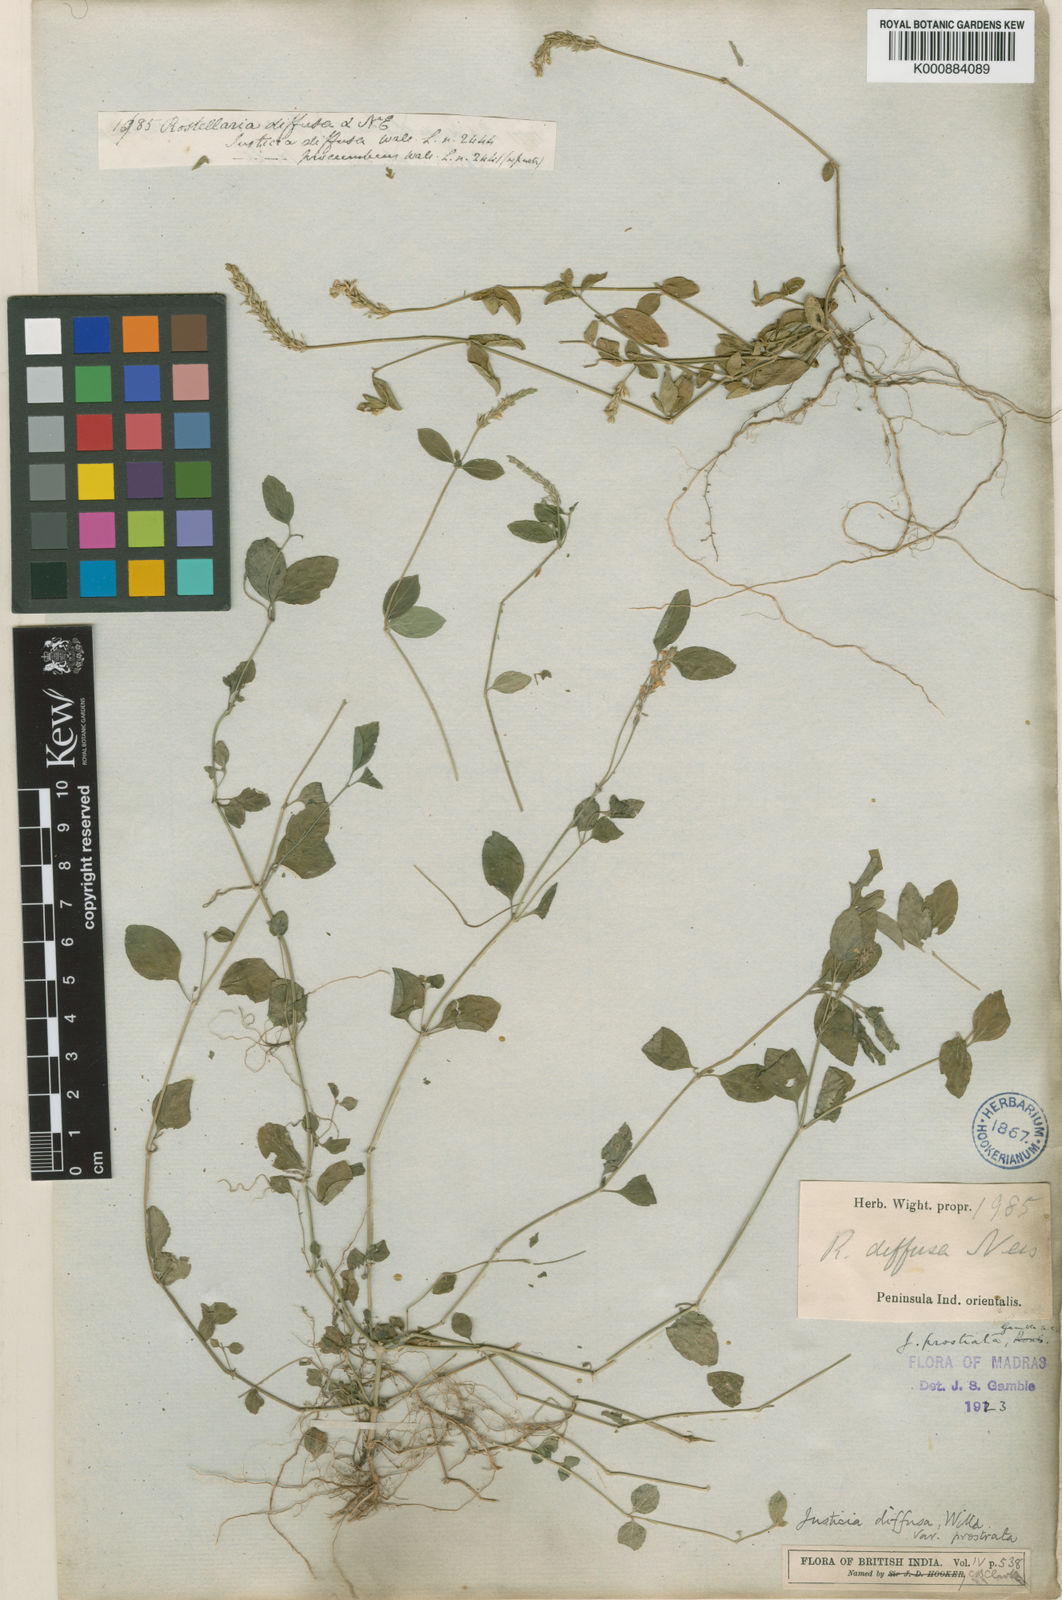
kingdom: Plantae
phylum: Tracheophyta
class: Magnoliopsida
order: Lamiales
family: Acanthaceae
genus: Rostellularia
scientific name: Rostellularia prostrata
